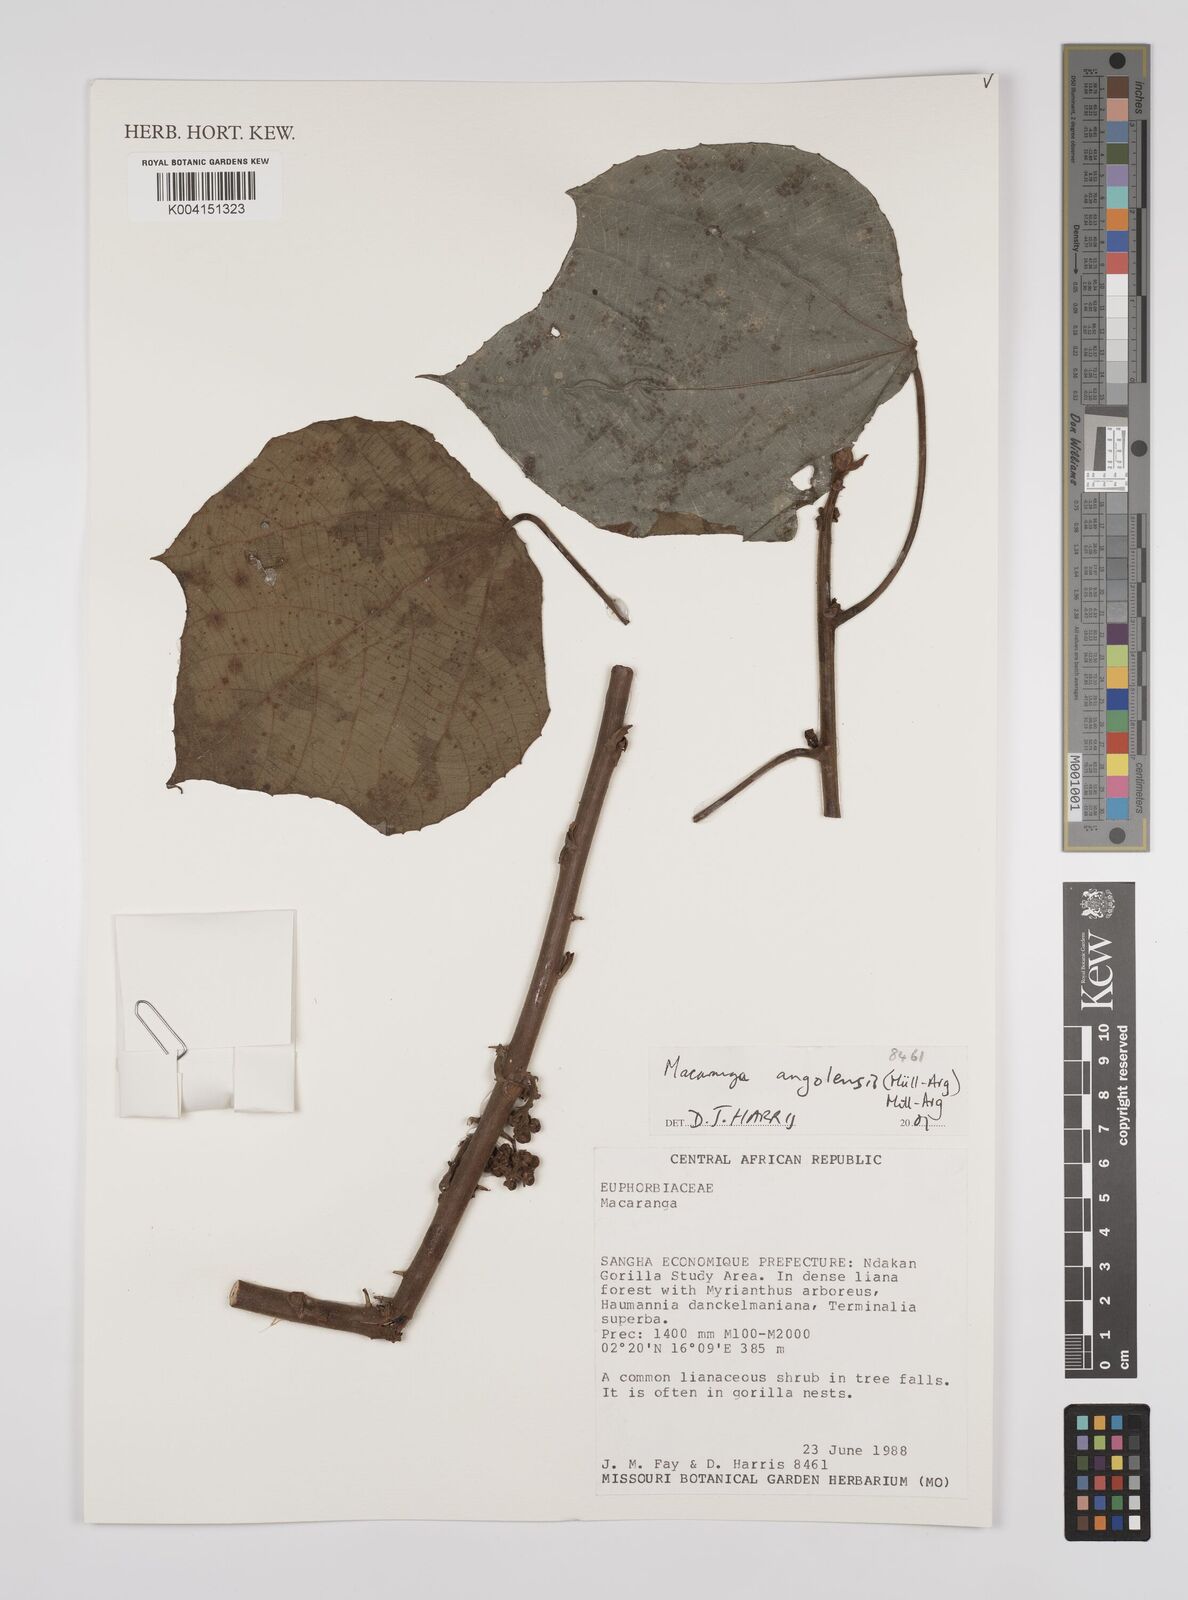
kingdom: Plantae
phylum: Tracheophyta
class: Magnoliopsida
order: Malpighiales
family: Euphorbiaceae
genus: Macaranga
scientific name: Macaranga angolensis
